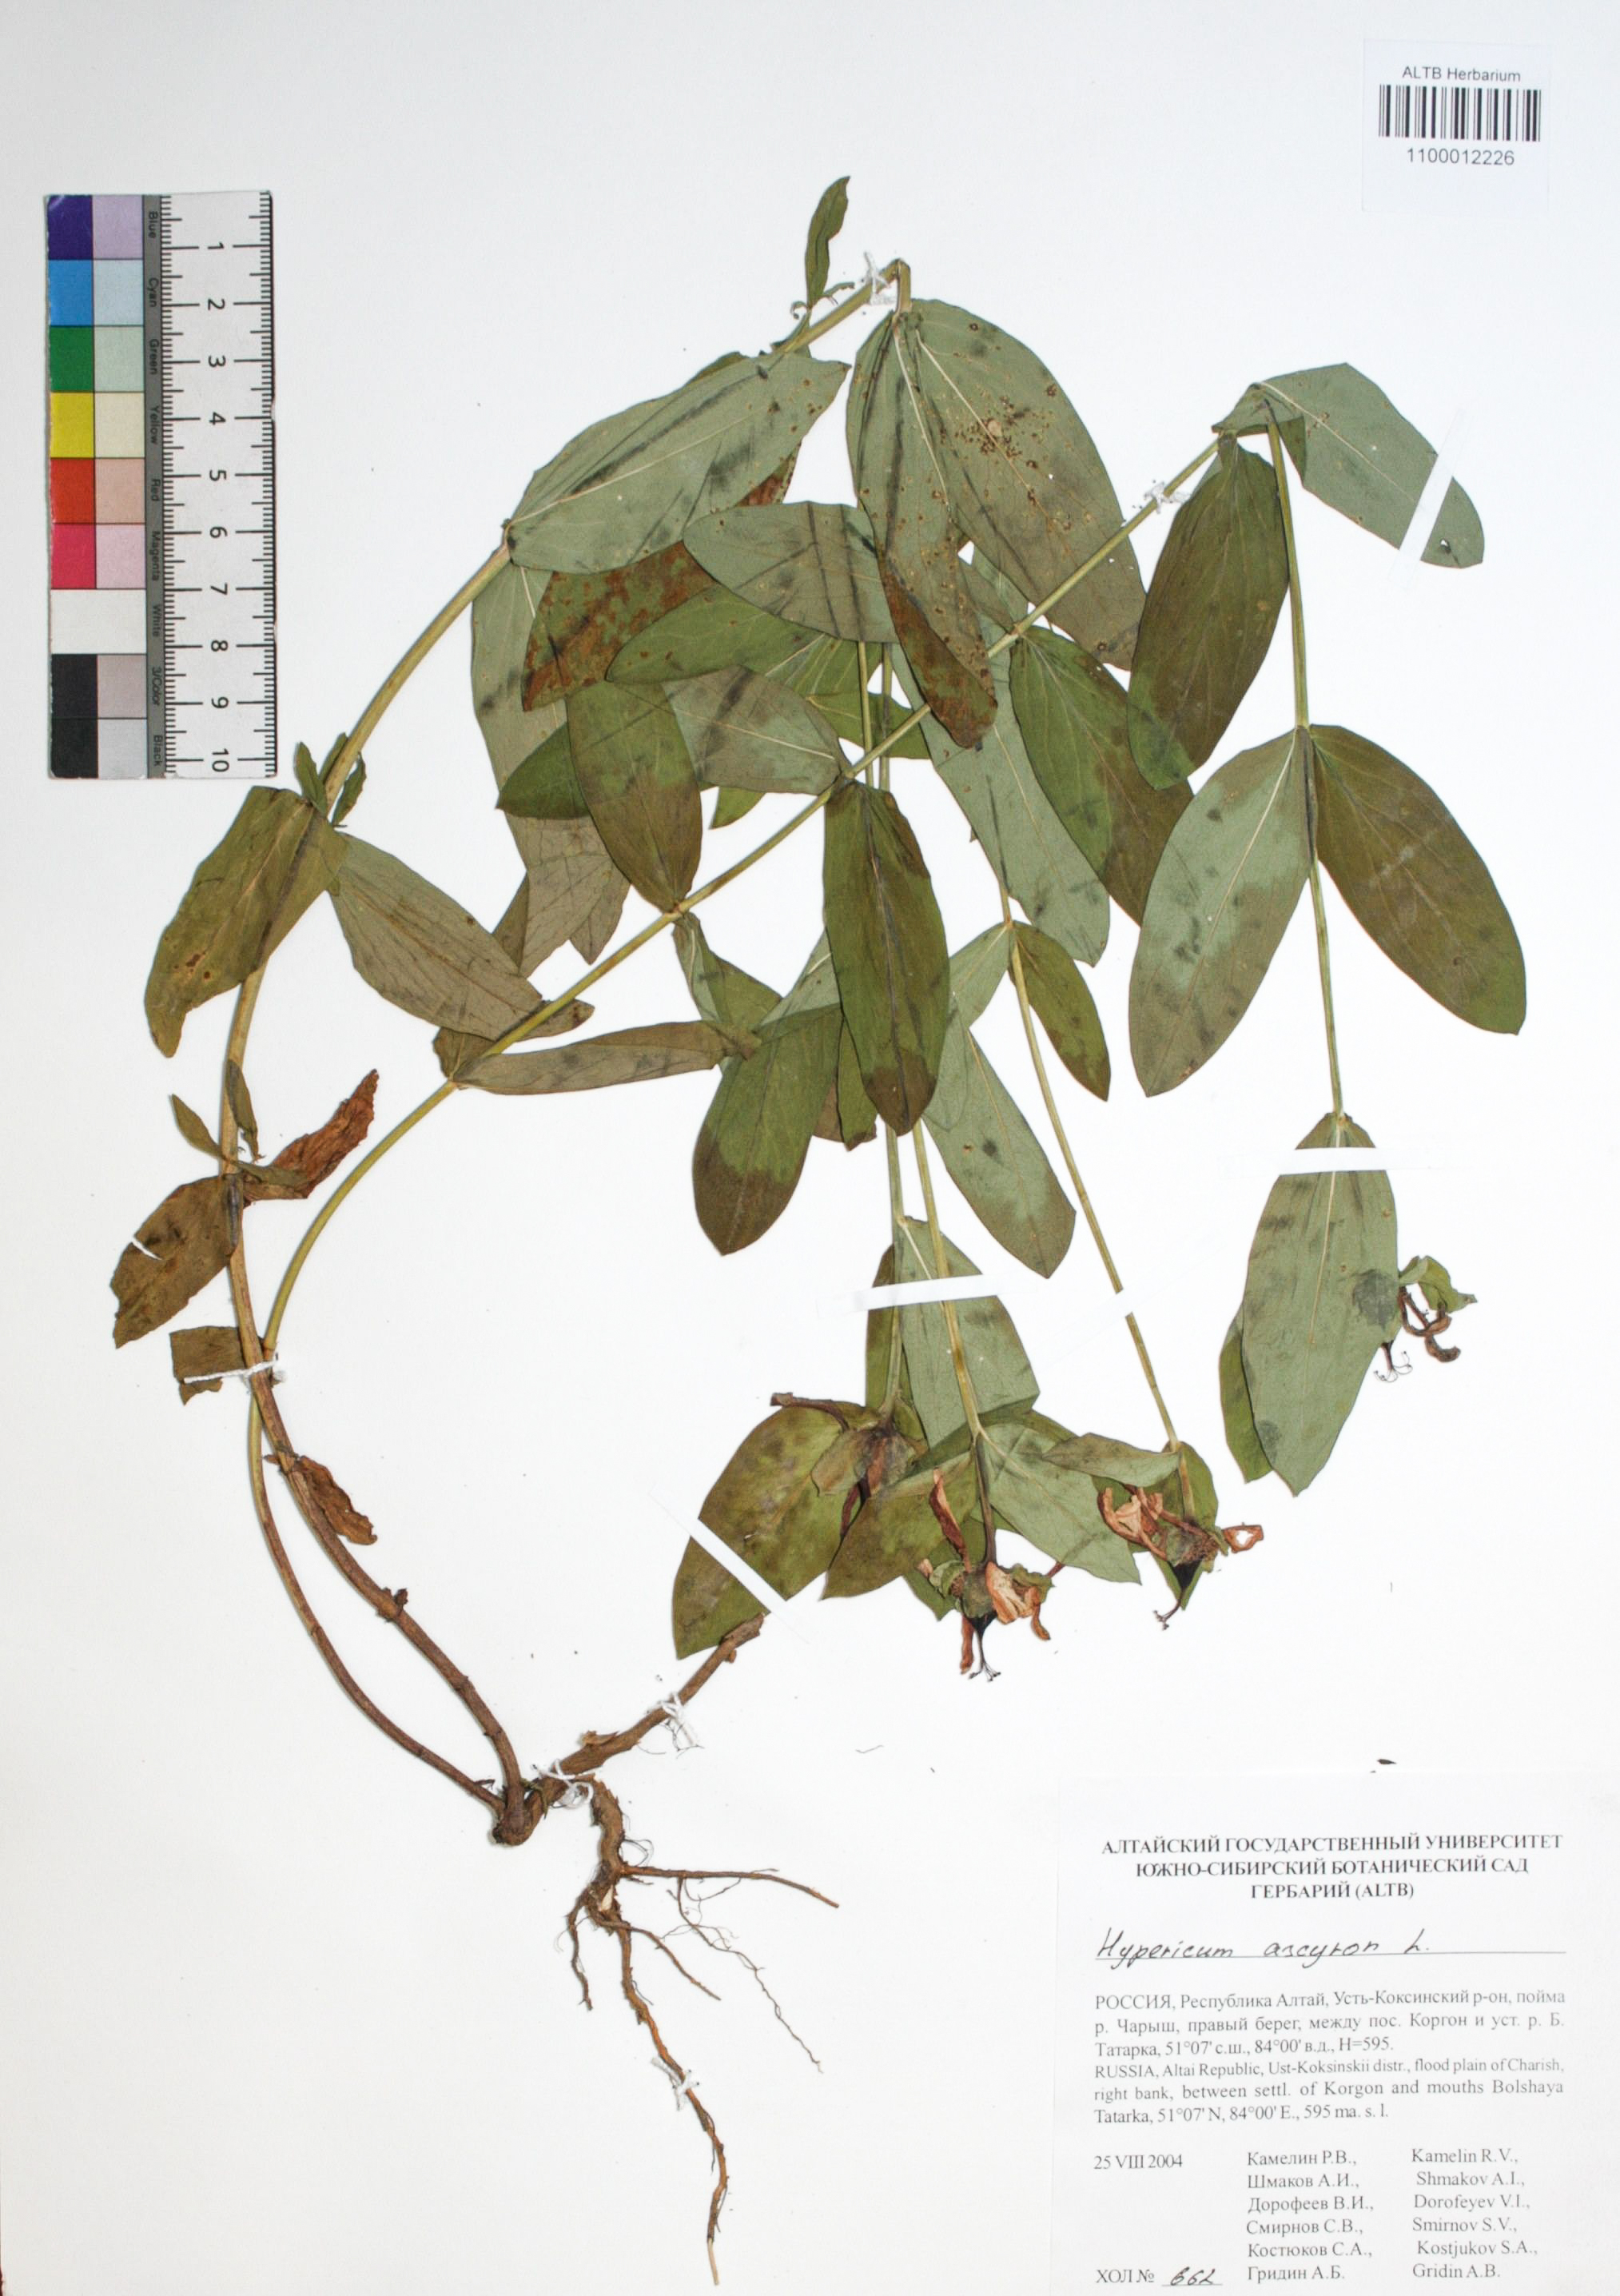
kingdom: Plantae
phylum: Tracheophyta
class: Magnoliopsida
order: Malpighiales
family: Hypericaceae
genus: Hypericum
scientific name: Hypericum ascyron
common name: Giant st. john's-wort
